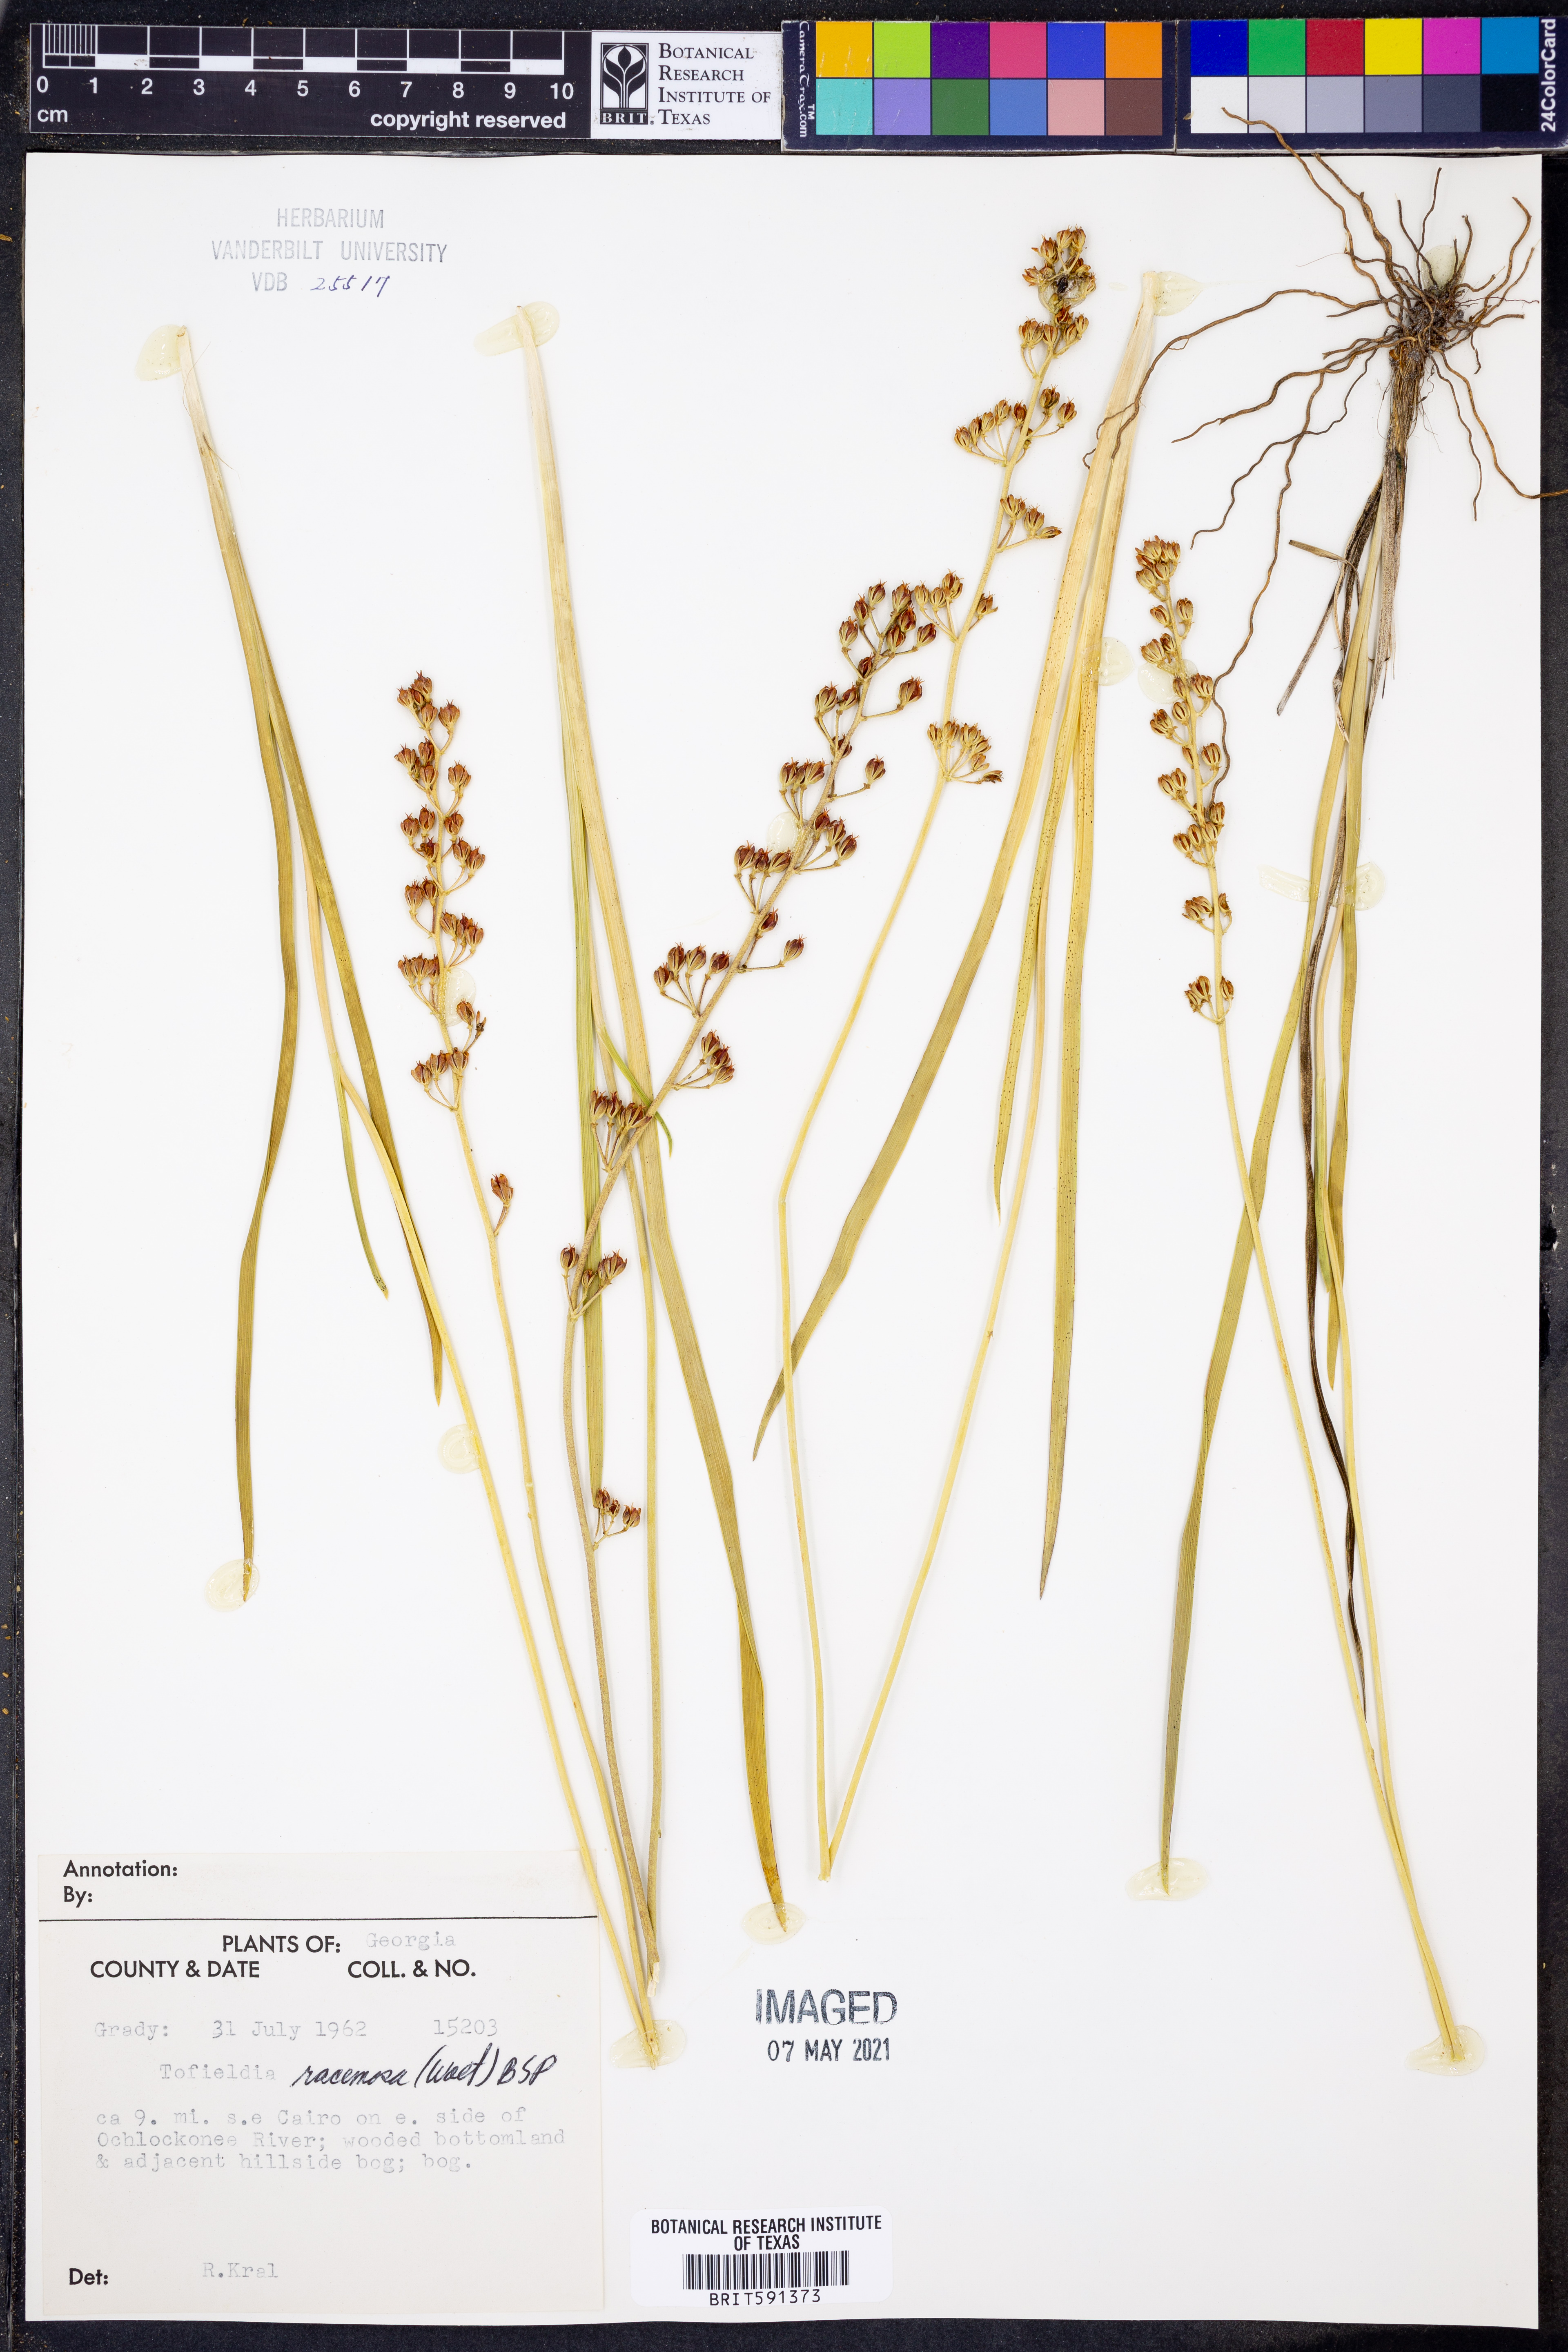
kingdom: Plantae
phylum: Tracheophyta
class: Liliopsida
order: Alismatales
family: Tofieldiaceae
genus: Triantha
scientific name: Triantha racemosa
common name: Coastal false asphodel
